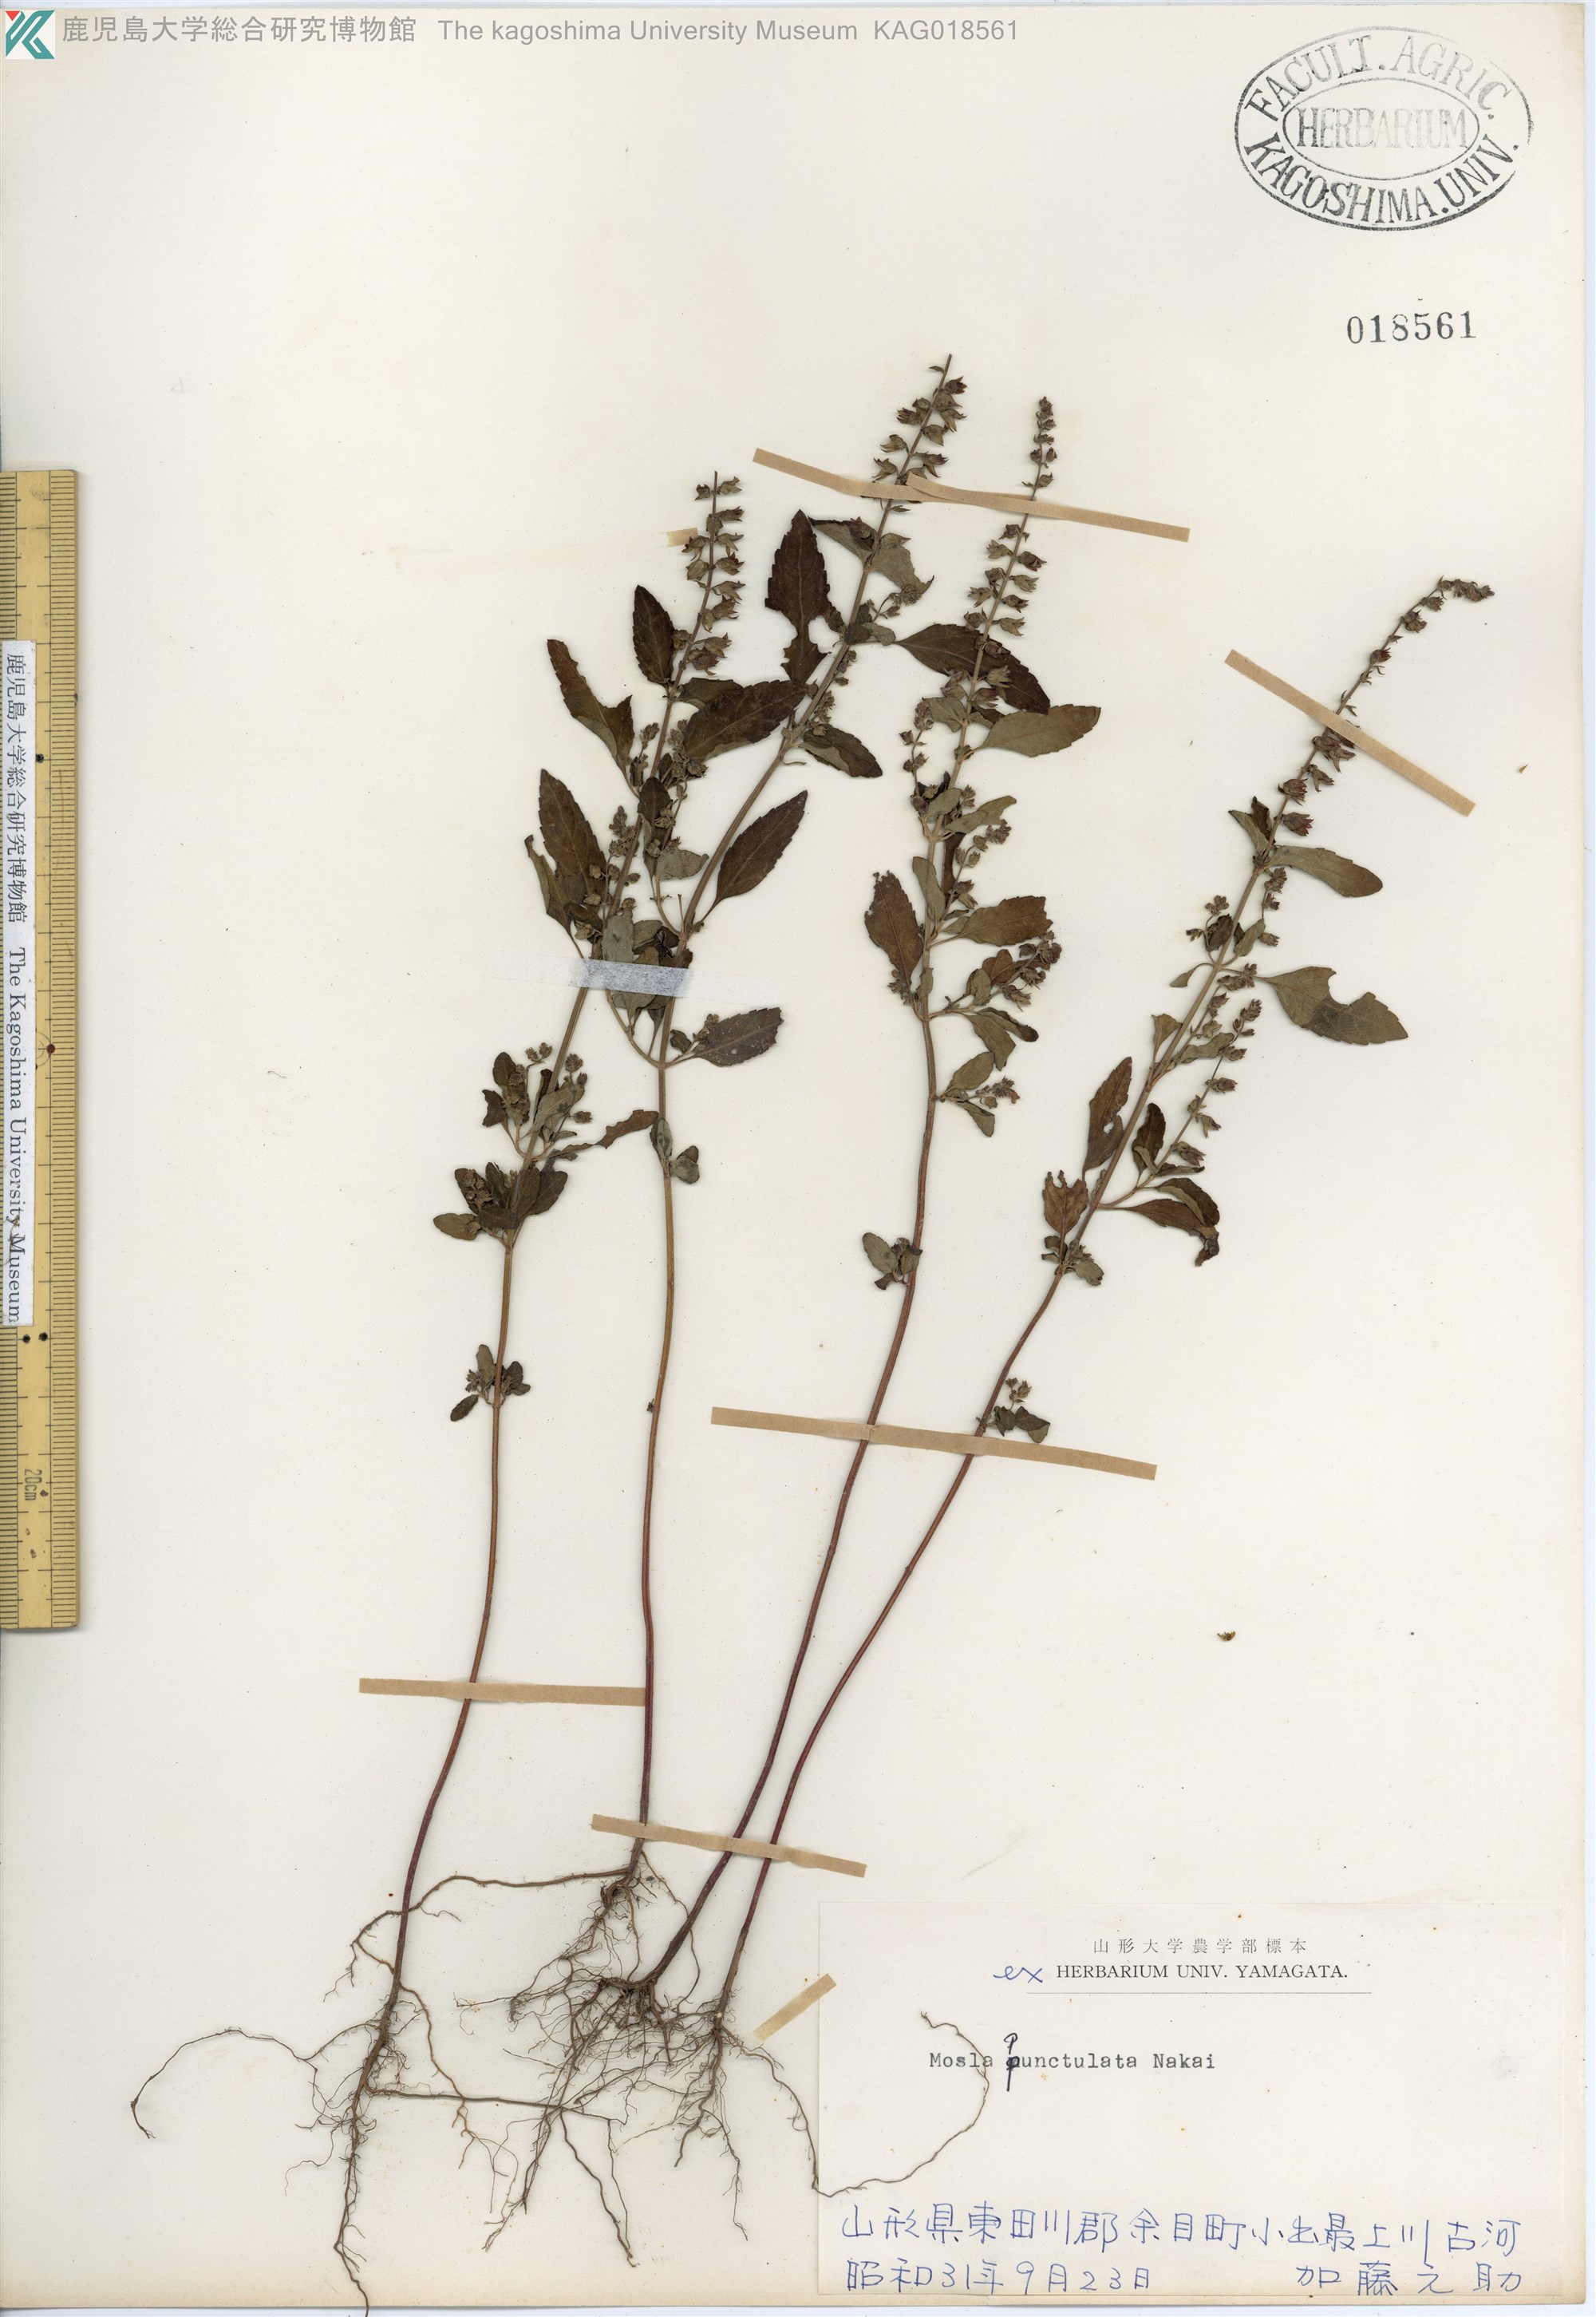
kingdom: Plantae
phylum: Tracheophyta
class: Magnoliopsida
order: Lamiales
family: Lamiaceae
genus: Mosla
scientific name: Mosla scabra
